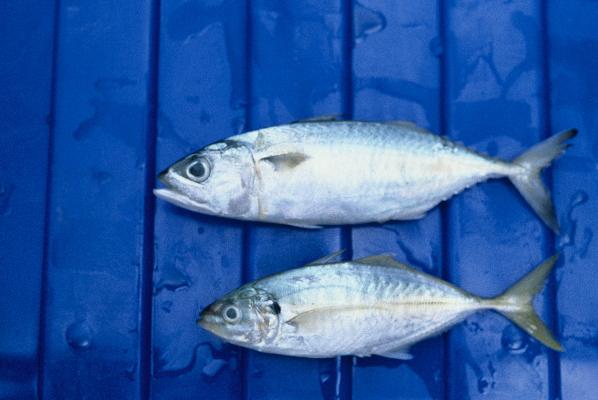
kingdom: Animalia
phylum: Chordata
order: Perciformes
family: Scombridae
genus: Scomber
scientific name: Scomber japonicus
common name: Chub mackerel
